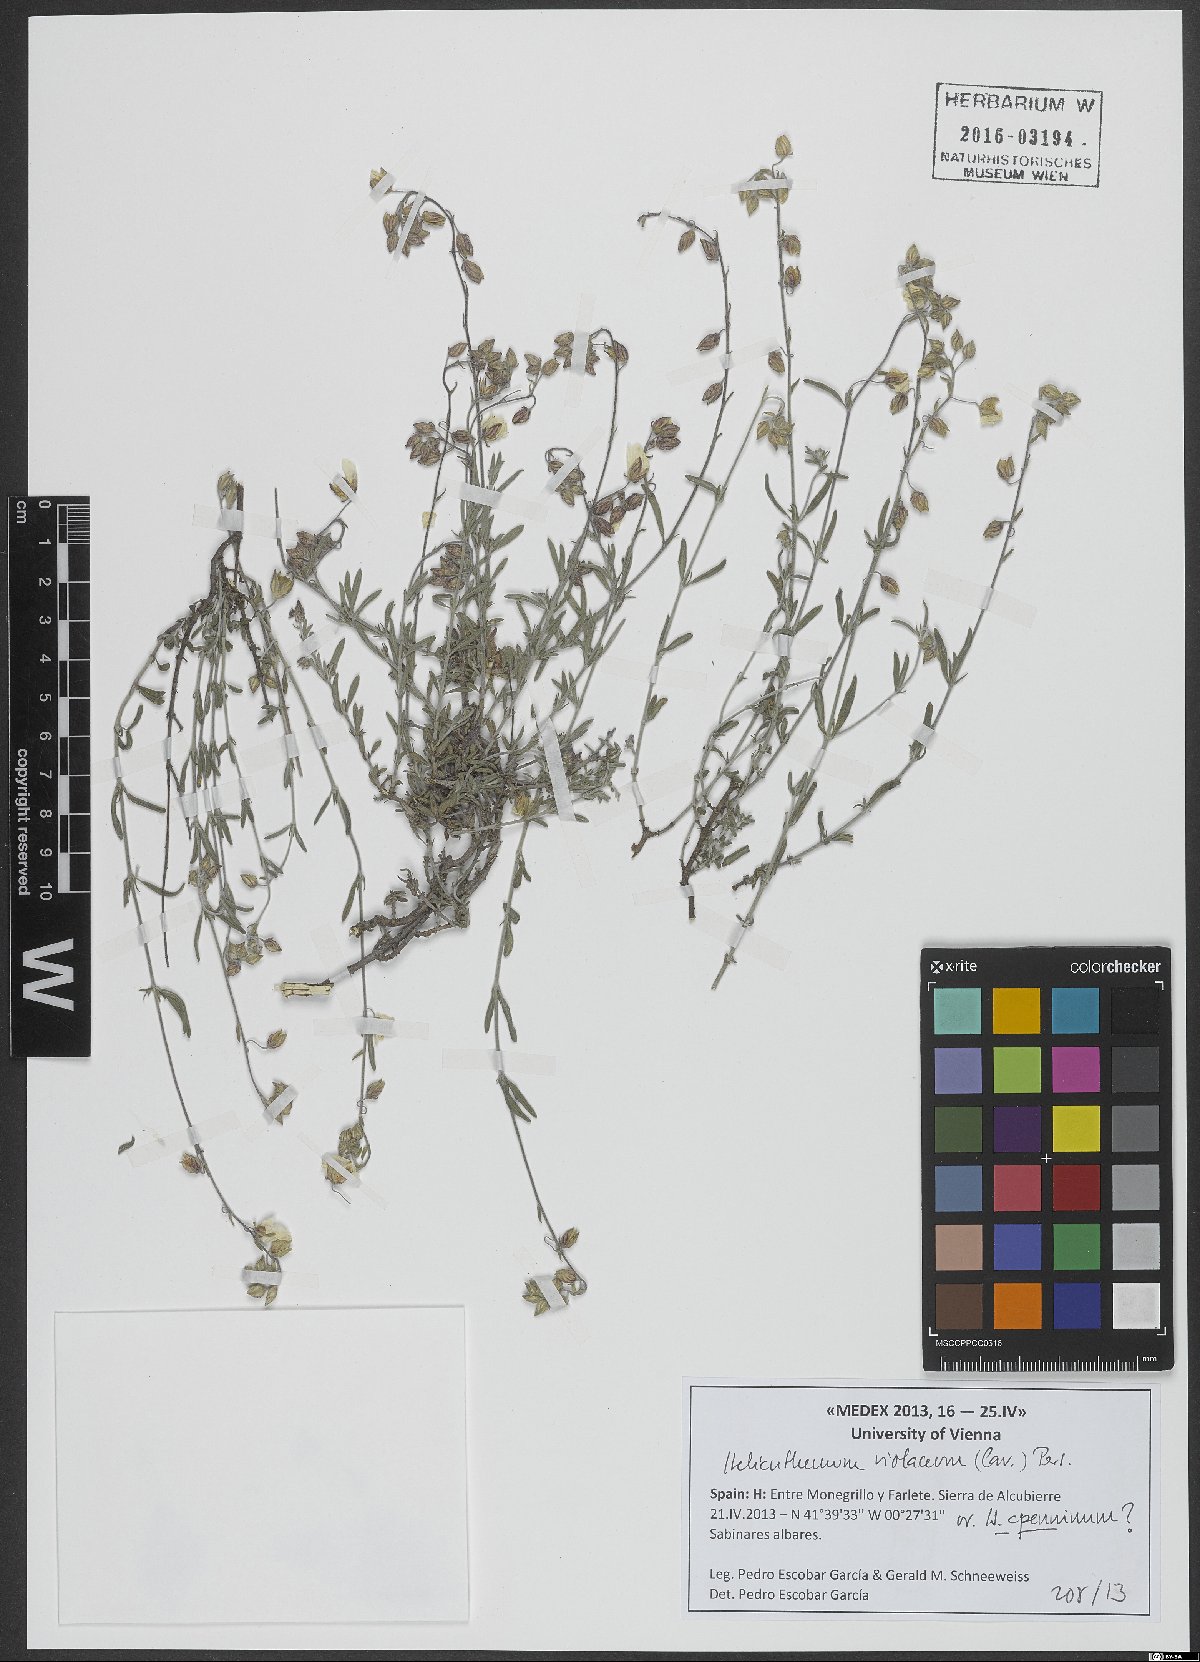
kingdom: Plantae
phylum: Tracheophyta
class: Magnoliopsida
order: Malvales
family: Cistaceae
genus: Helianthemum
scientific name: Helianthemum violaceum
